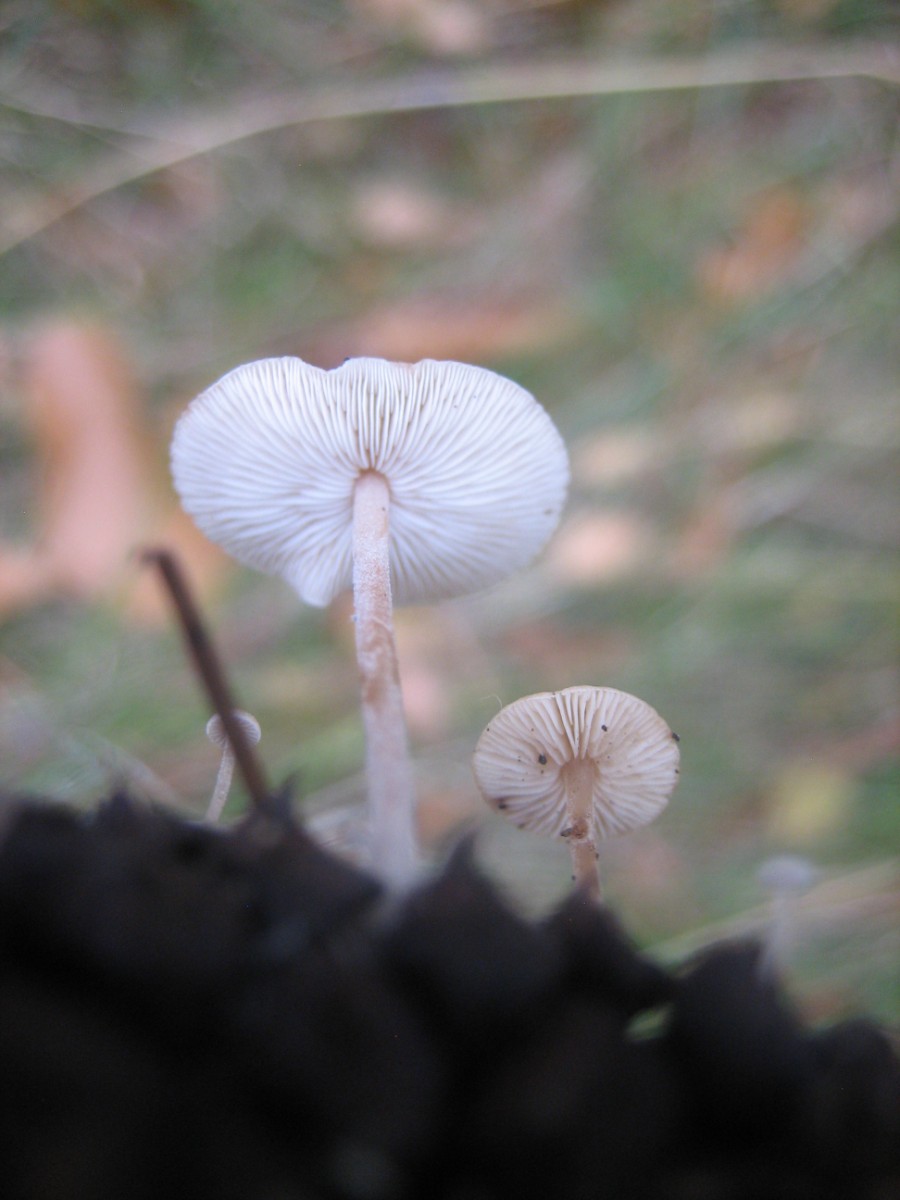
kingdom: Fungi
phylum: Basidiomycota
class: Agaricomycetes
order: Agaricales
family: Marasmiaceae
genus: Baeospora
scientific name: Baeospora myosura
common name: koglebruskhat
